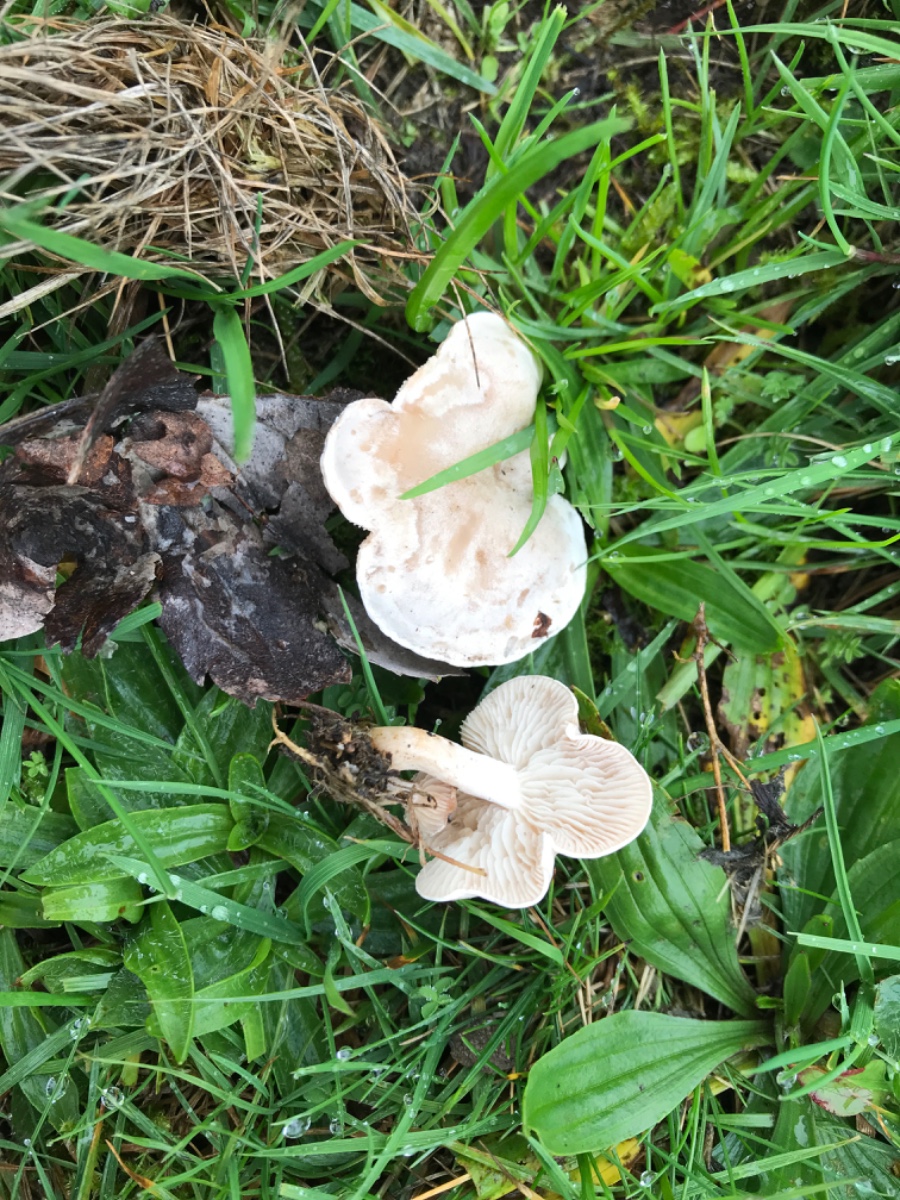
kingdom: Fungi
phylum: Basidiomycota
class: Agaricomycetes
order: Agaricales
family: Tricholomataceae
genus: Clitocybe
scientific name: Clitocybe rivulosa
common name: eng-tragthat
